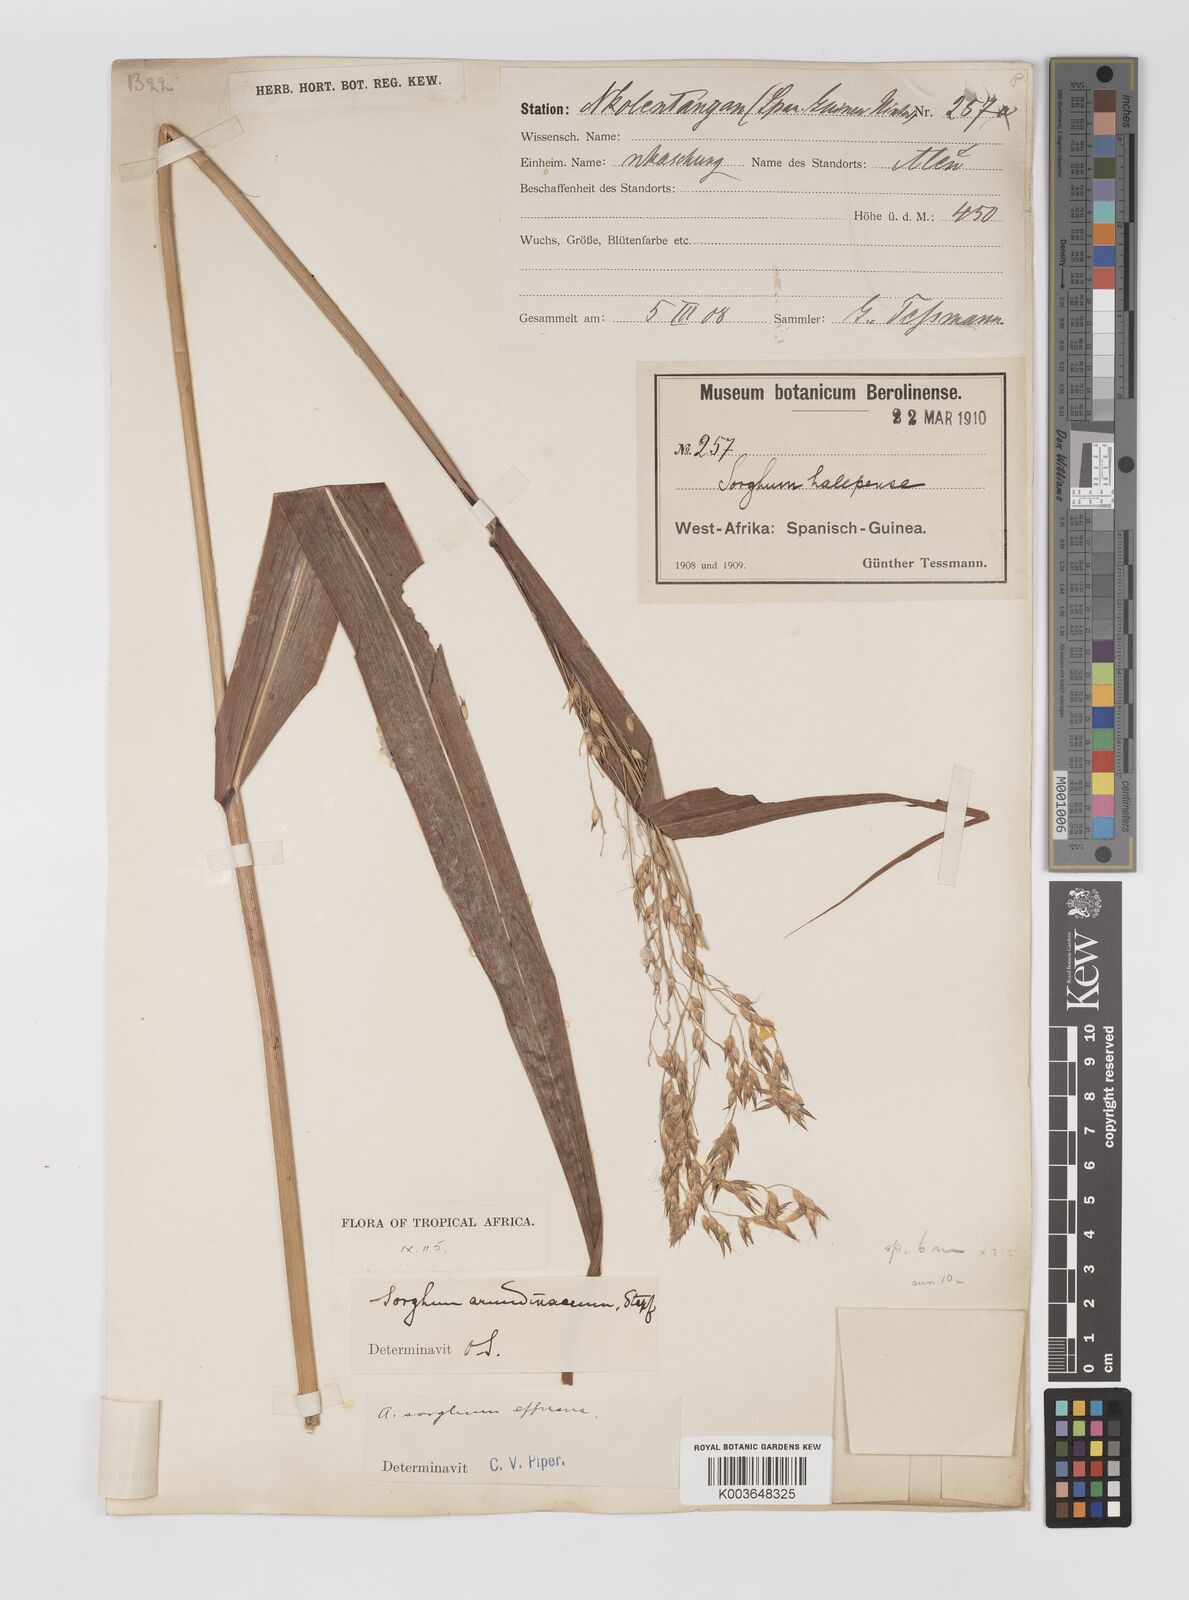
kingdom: Plantae
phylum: Tracheophyta
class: Liliopsida
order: Poales
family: Poaceae
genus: Sorghum
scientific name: Sorghum arundinaceum
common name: Sorghum
